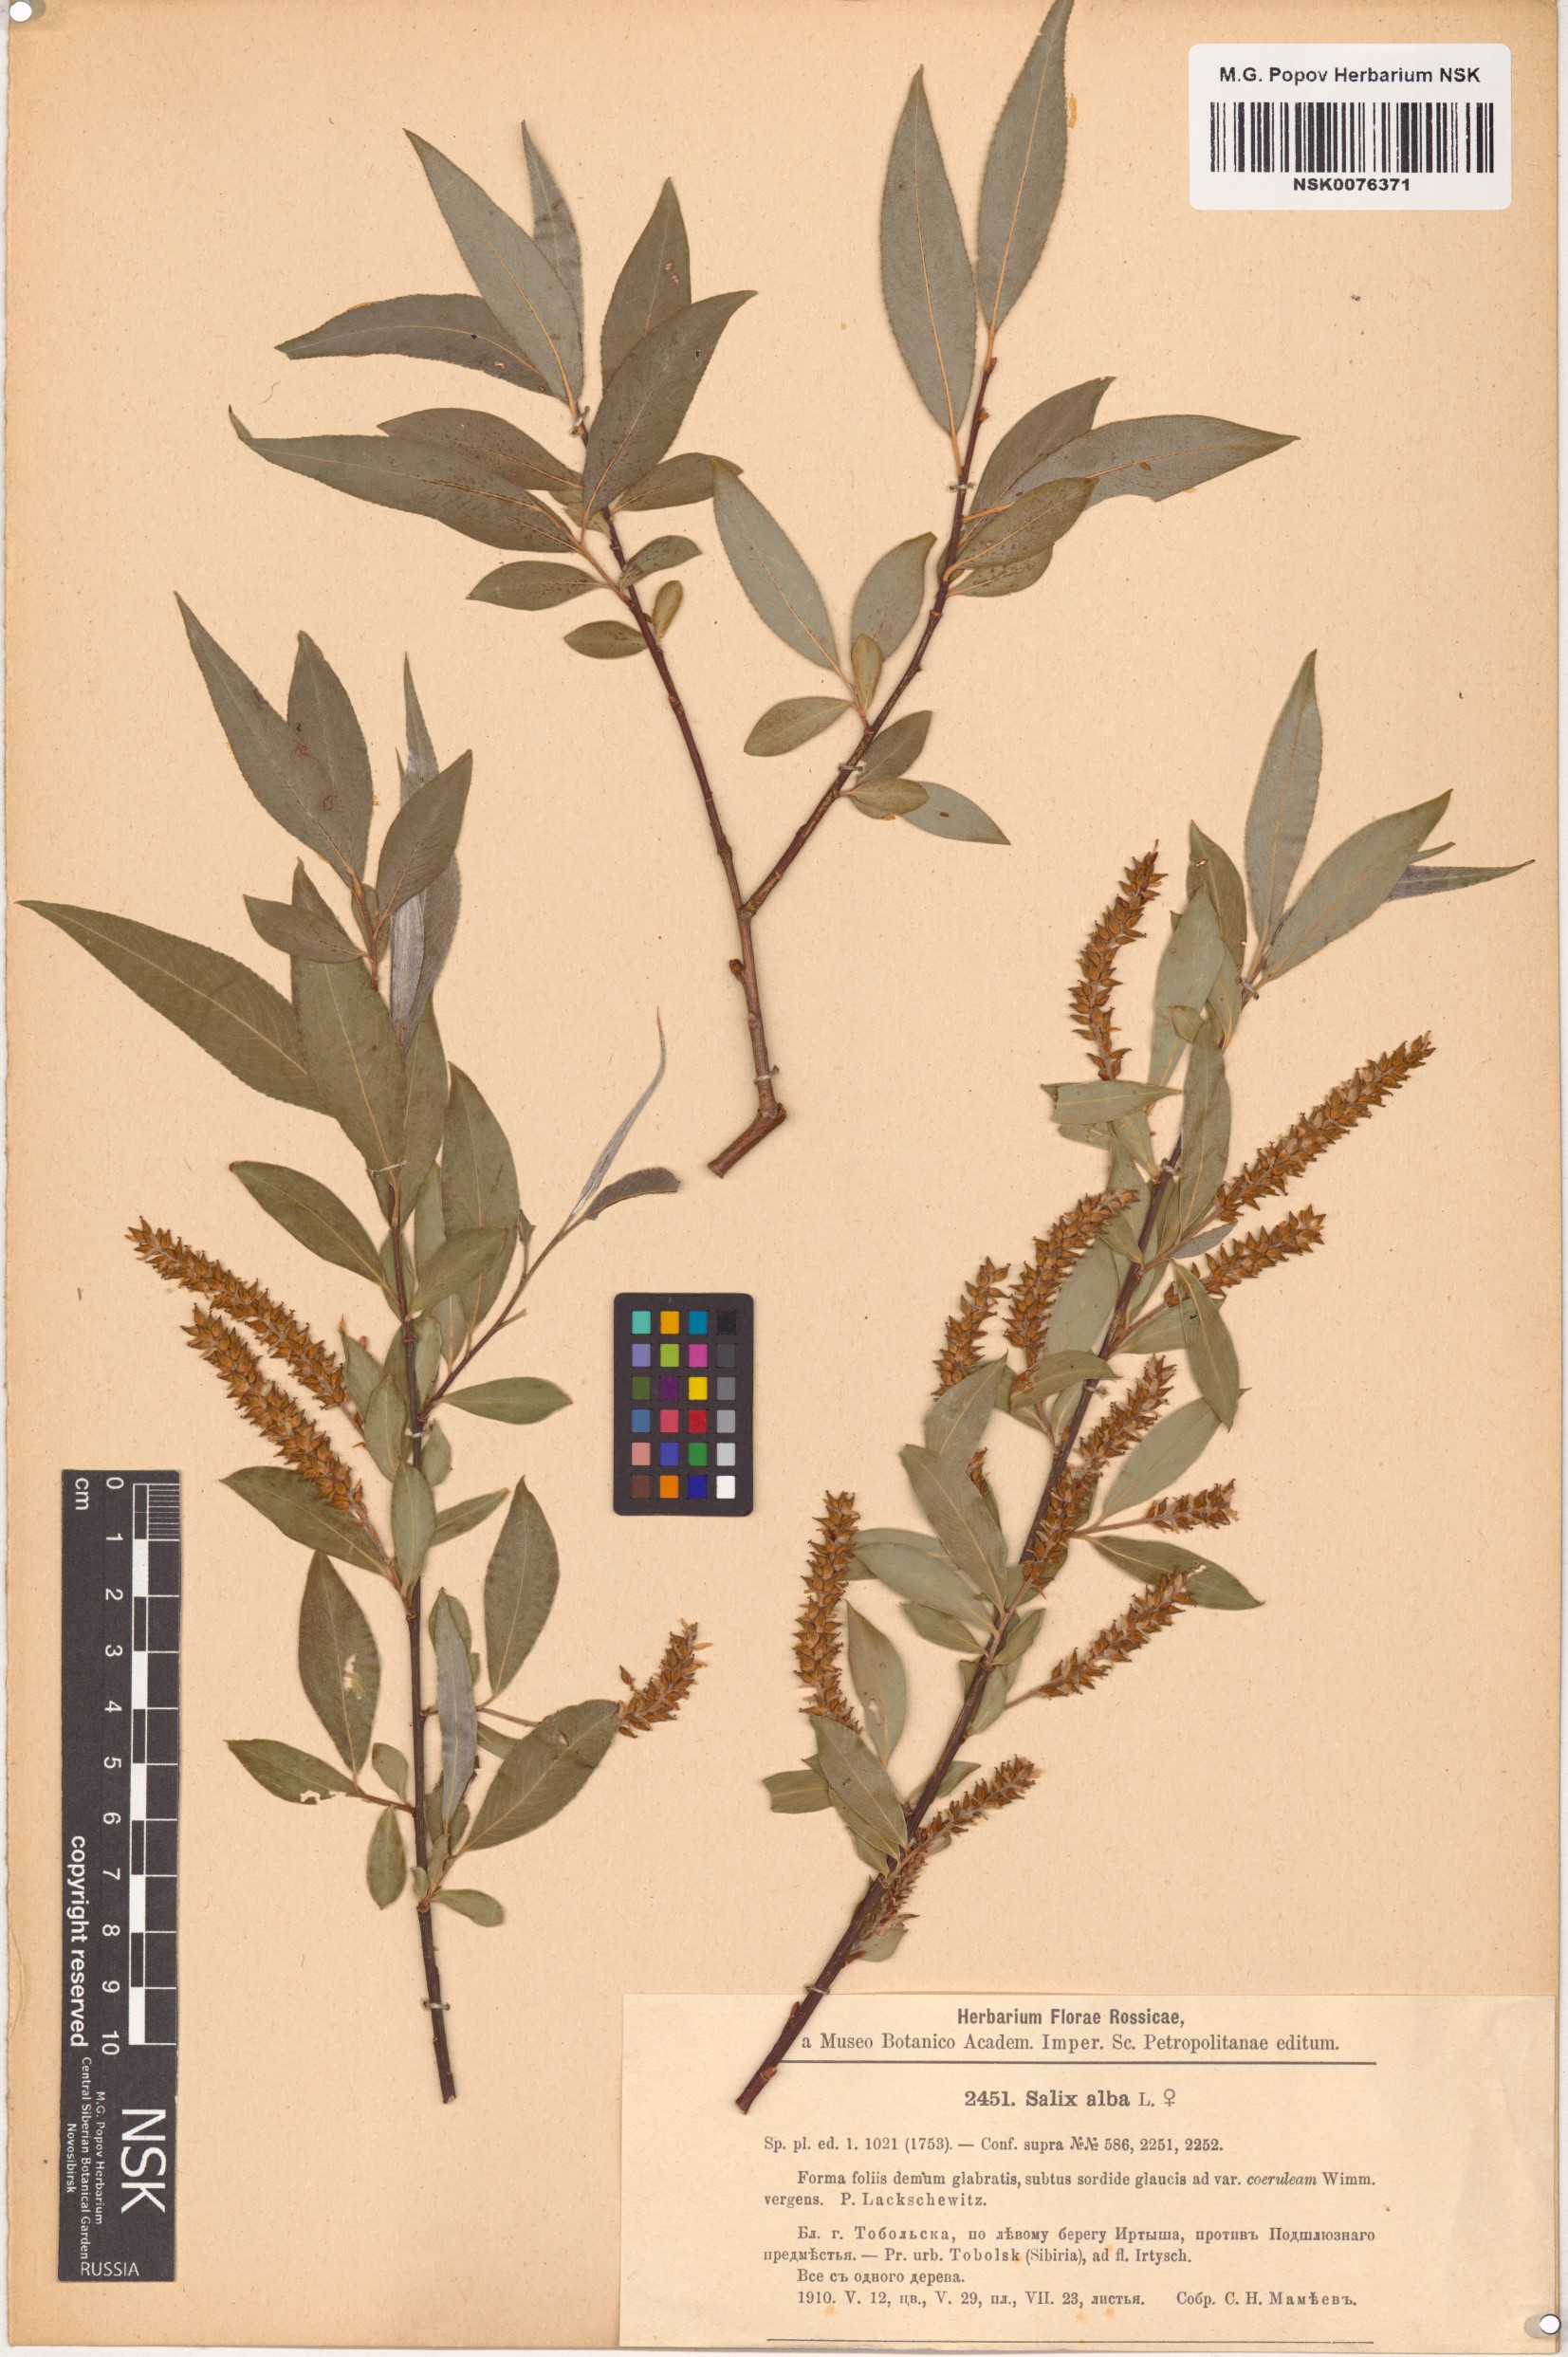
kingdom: Plantae
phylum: Tracheophyta
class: Magnoliopsida
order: Malpighiales
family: Salicaceae
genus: Salix
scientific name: Salix alba
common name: White willow
